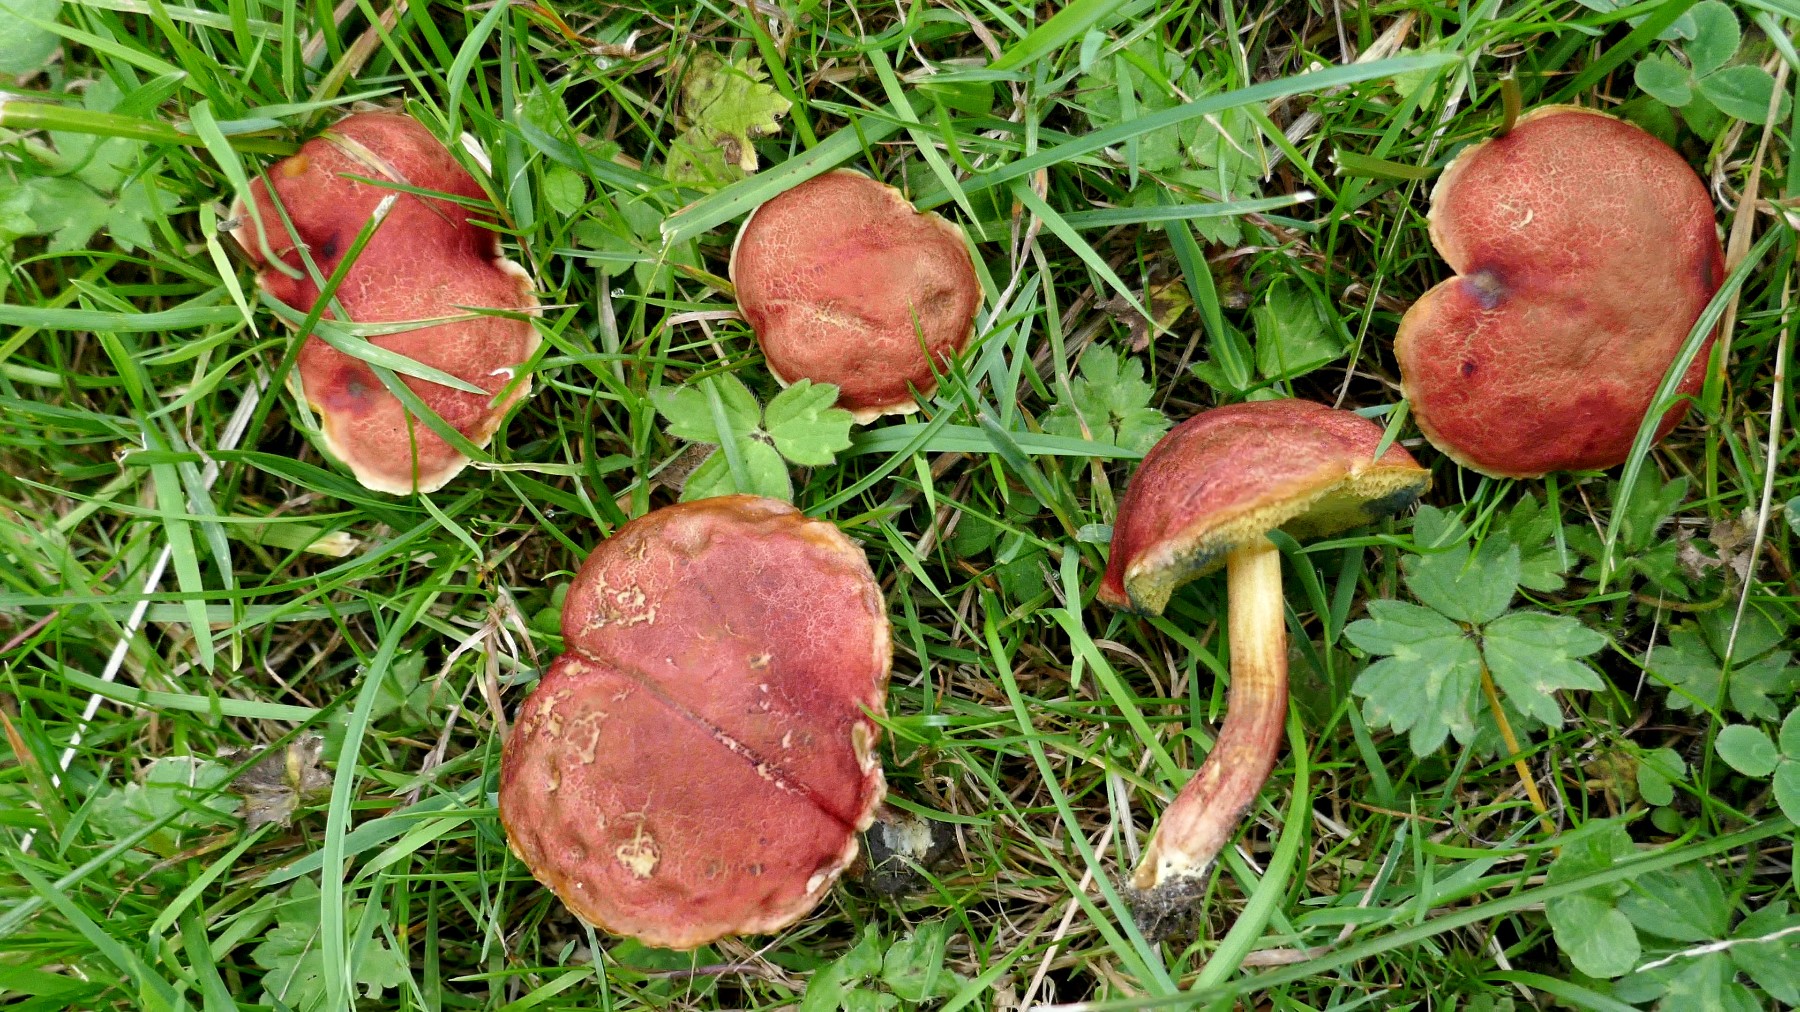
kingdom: Fungi
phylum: Basidiomycota
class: Agaricomycetes
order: Boletales
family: Boletaceae
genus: Hortiboletus
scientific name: Hortiboletus rubellus
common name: blodrød rørhat
